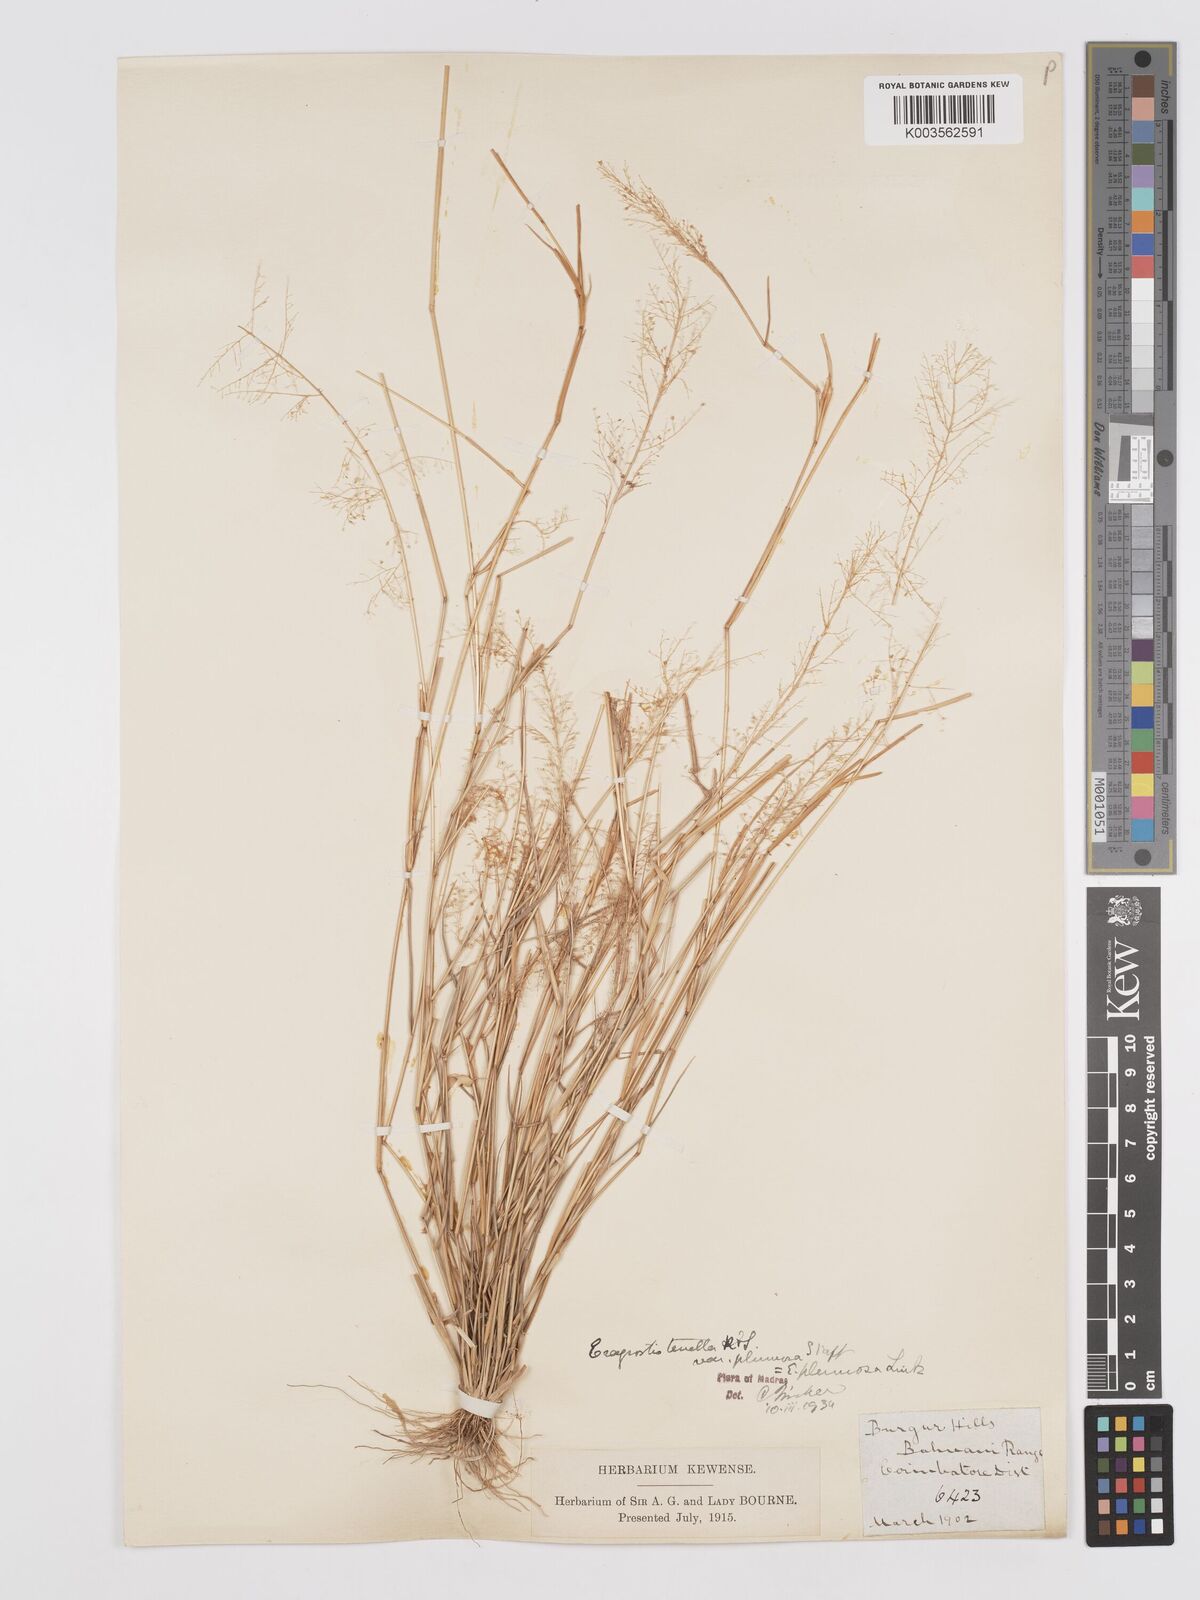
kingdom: Plantae
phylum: Tracheophyta
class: Liliopsida
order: Poales
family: Poaceae
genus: Eragrostis
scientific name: Eragrostis tenella
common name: Japanese lovegrass
